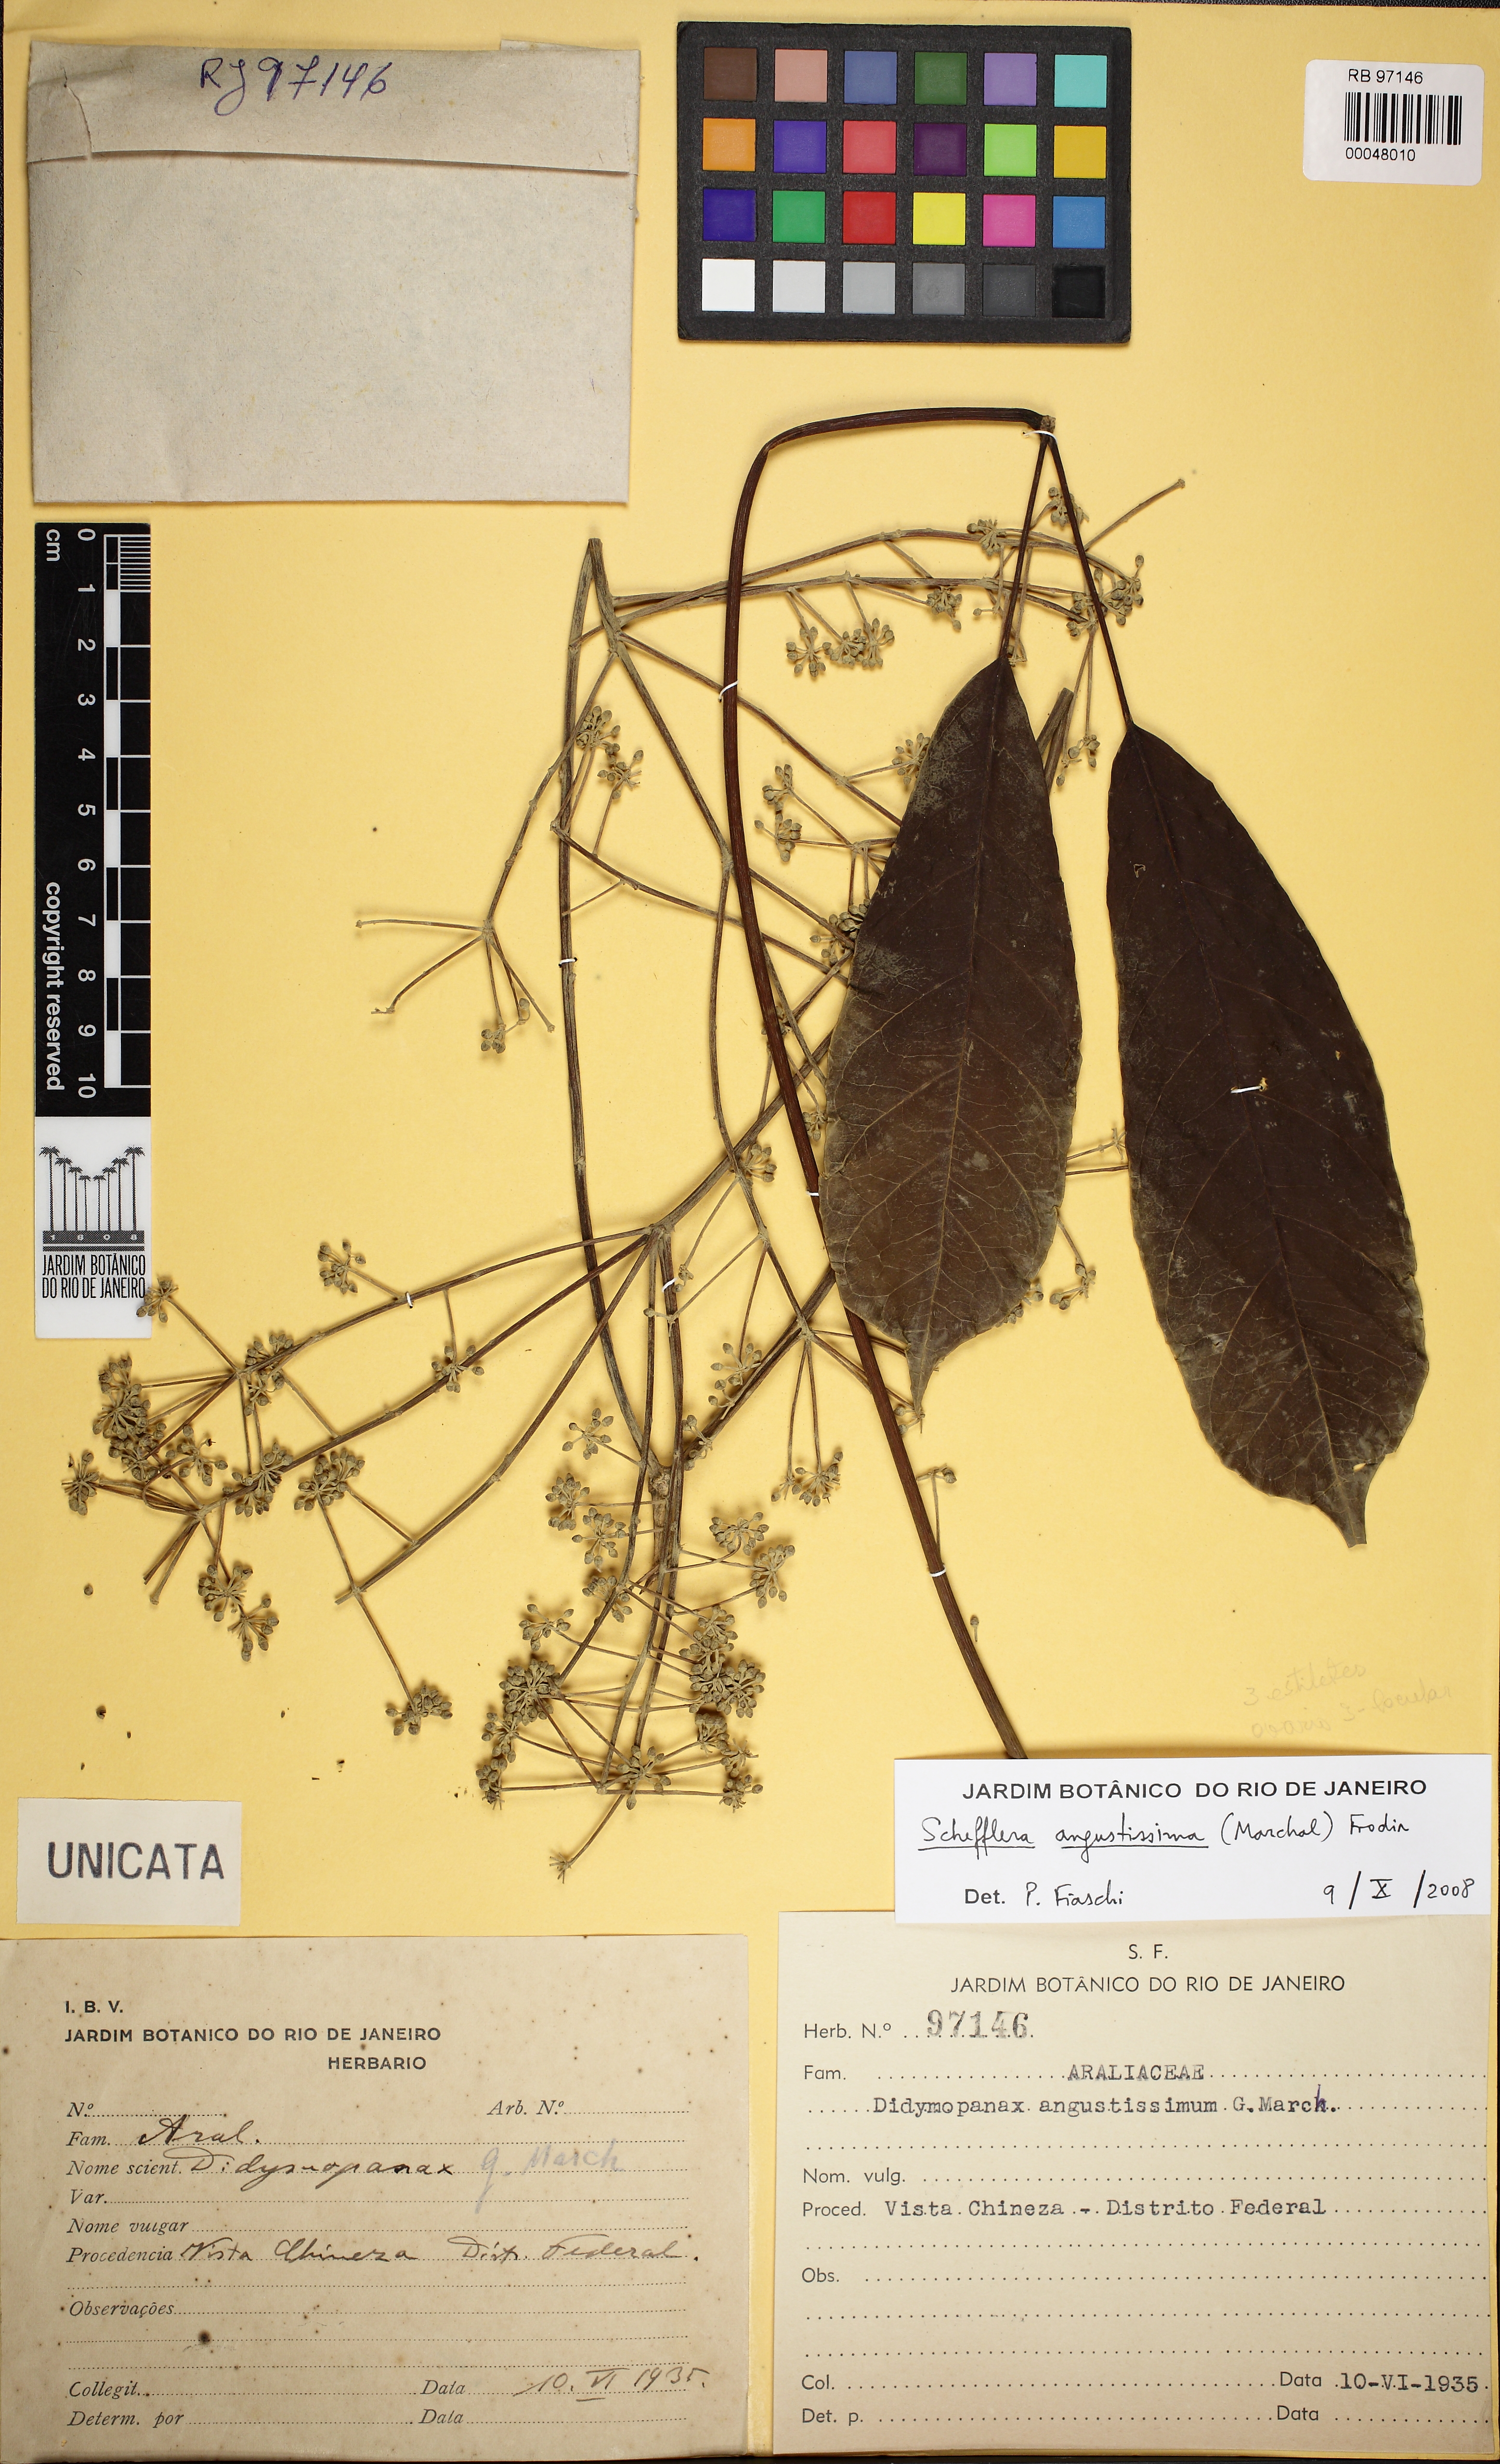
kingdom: Plantae
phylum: Tracheophyta
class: Magnoliopsida
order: Apiales
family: Araliaceae
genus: Didymopanax
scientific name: Didymopanax angustissimus
